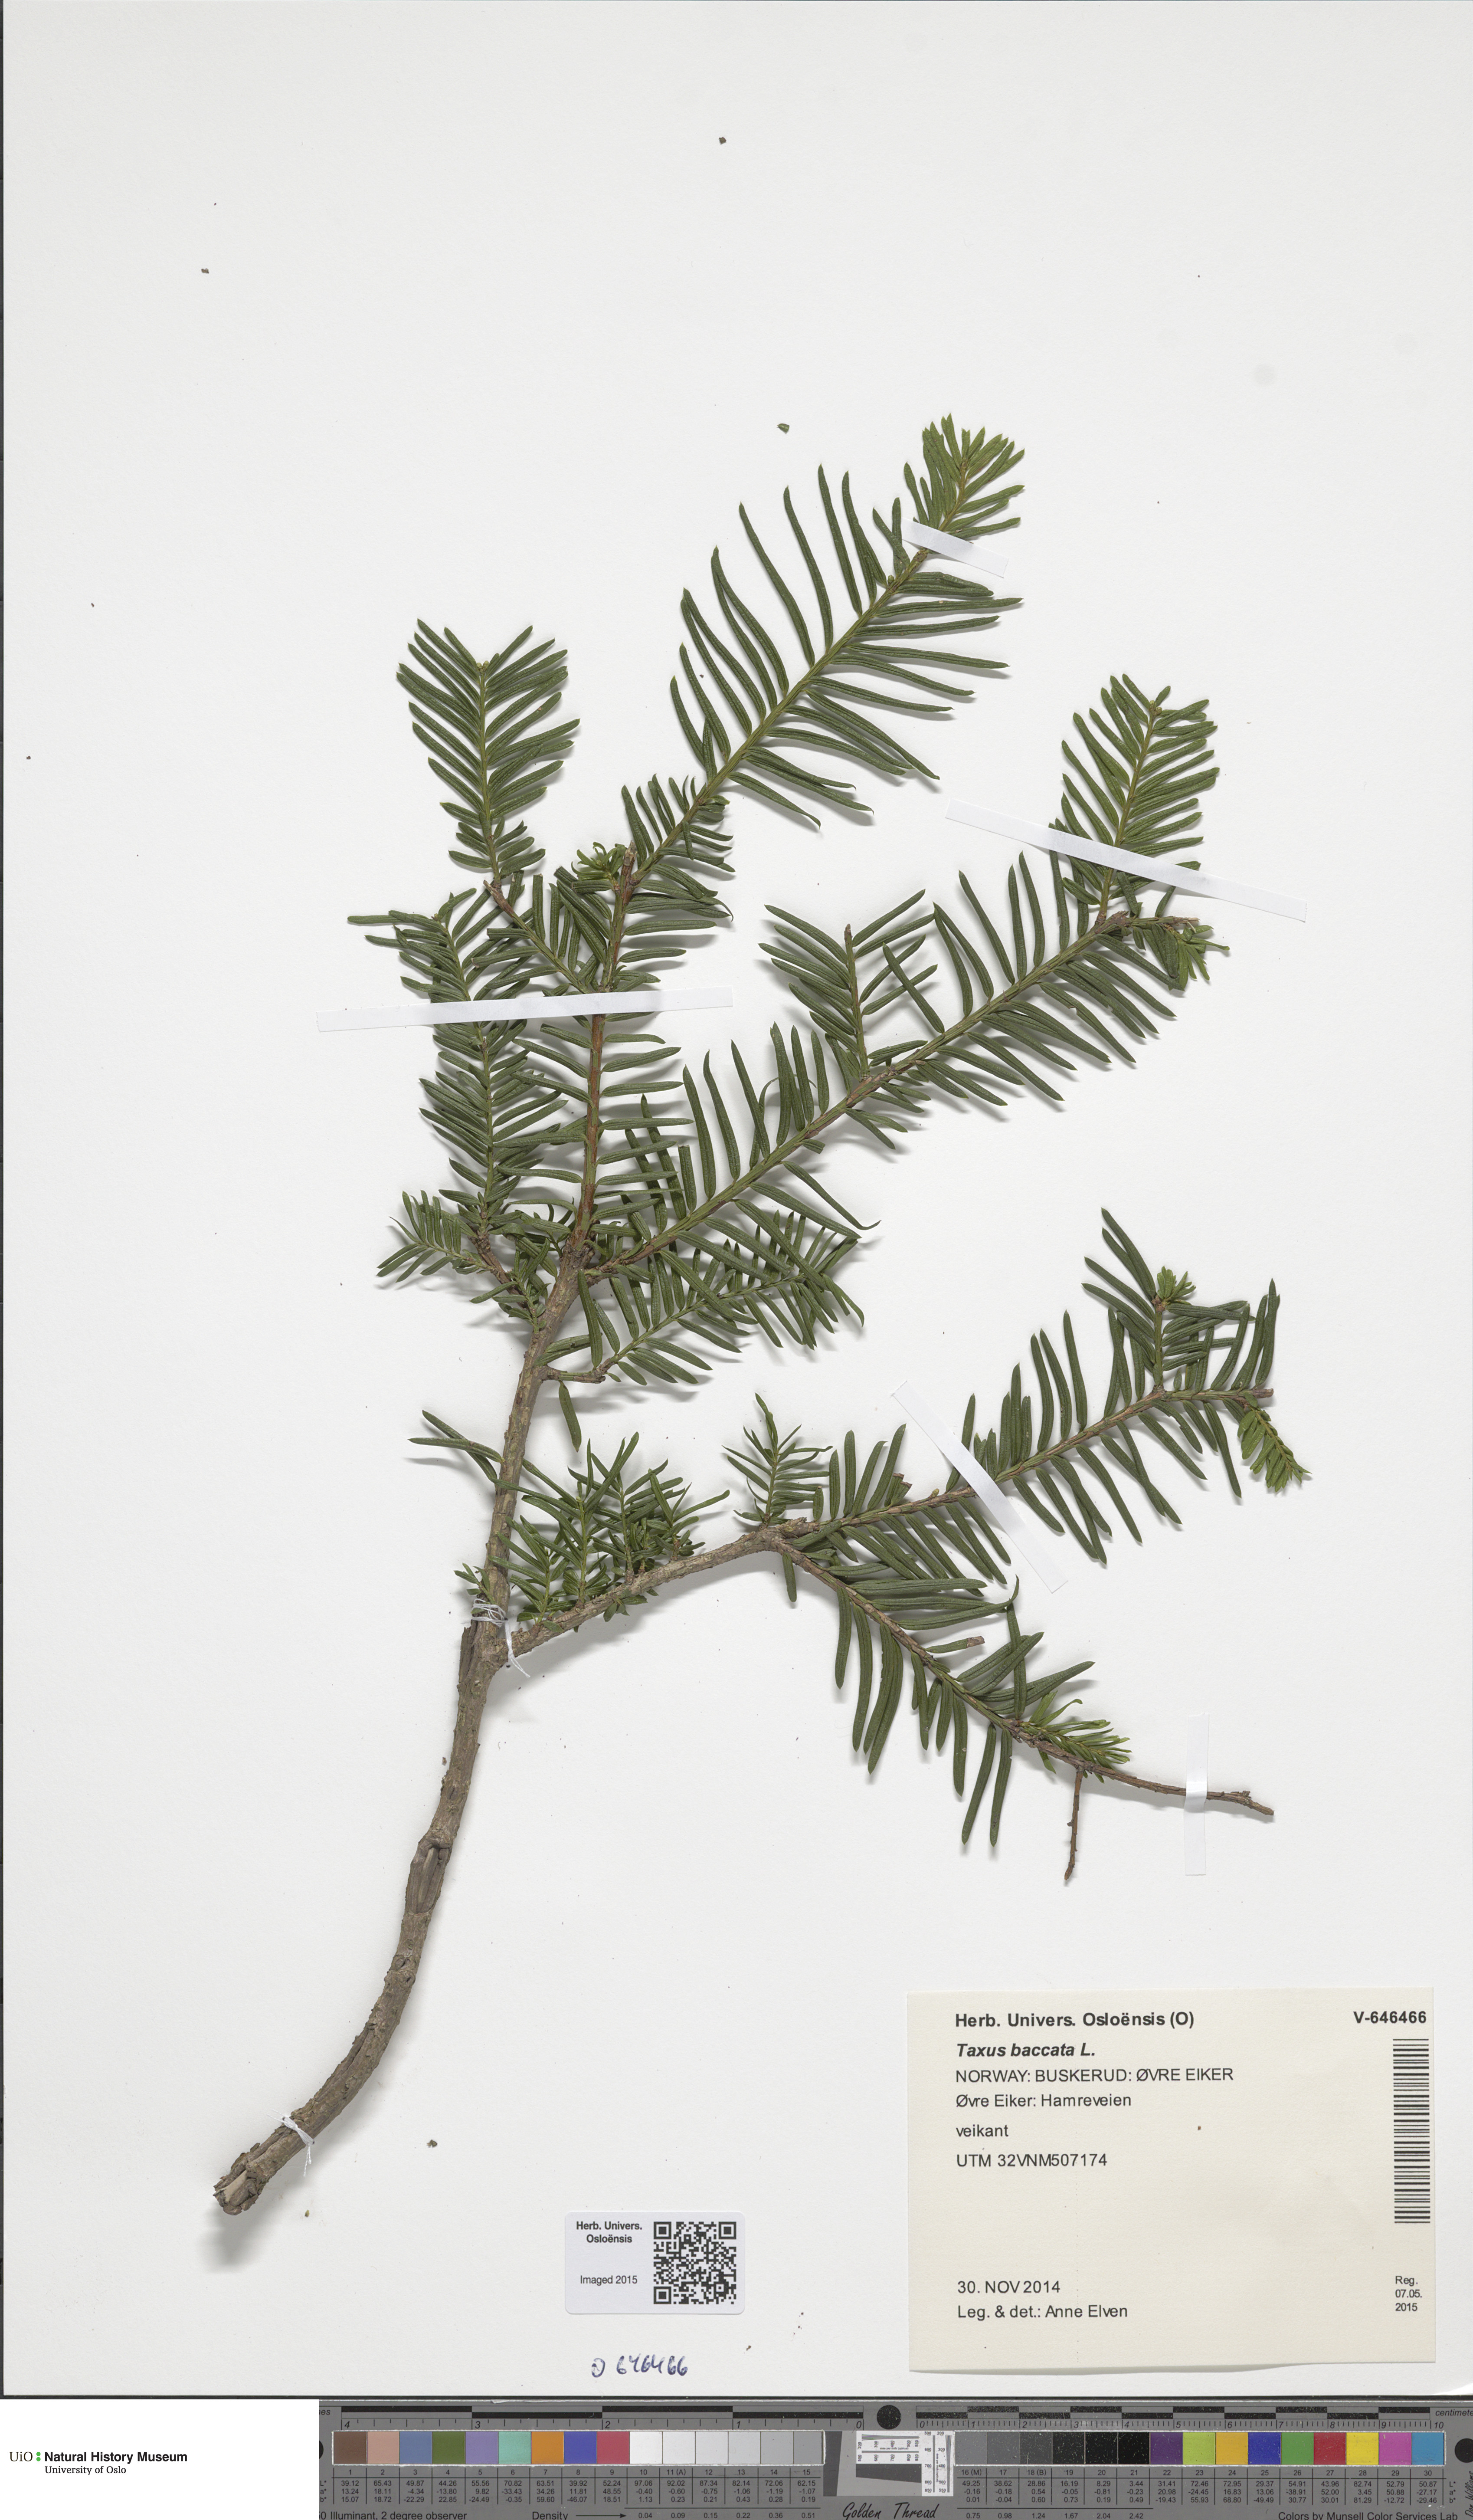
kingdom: Plantae
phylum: Tracheophyta
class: Pinopsida
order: Pinales
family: Taxaceae
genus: Taxus
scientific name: Taxus baccata
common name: Yew
